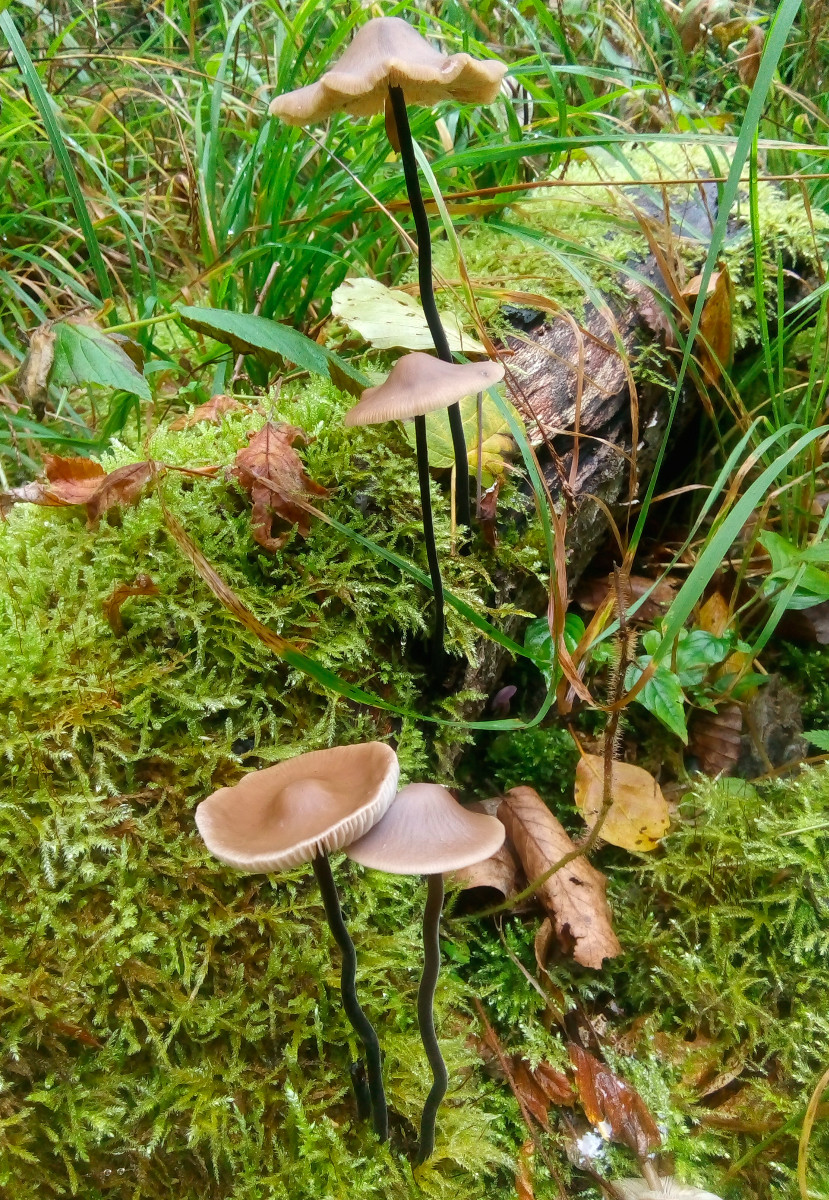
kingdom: Fungi
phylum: Basidiomycota
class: Agaricomycetes
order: Agaricales
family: Omphalotaceae
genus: Mycetinis
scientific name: Mycetinis alliaceus
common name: stor løghat
